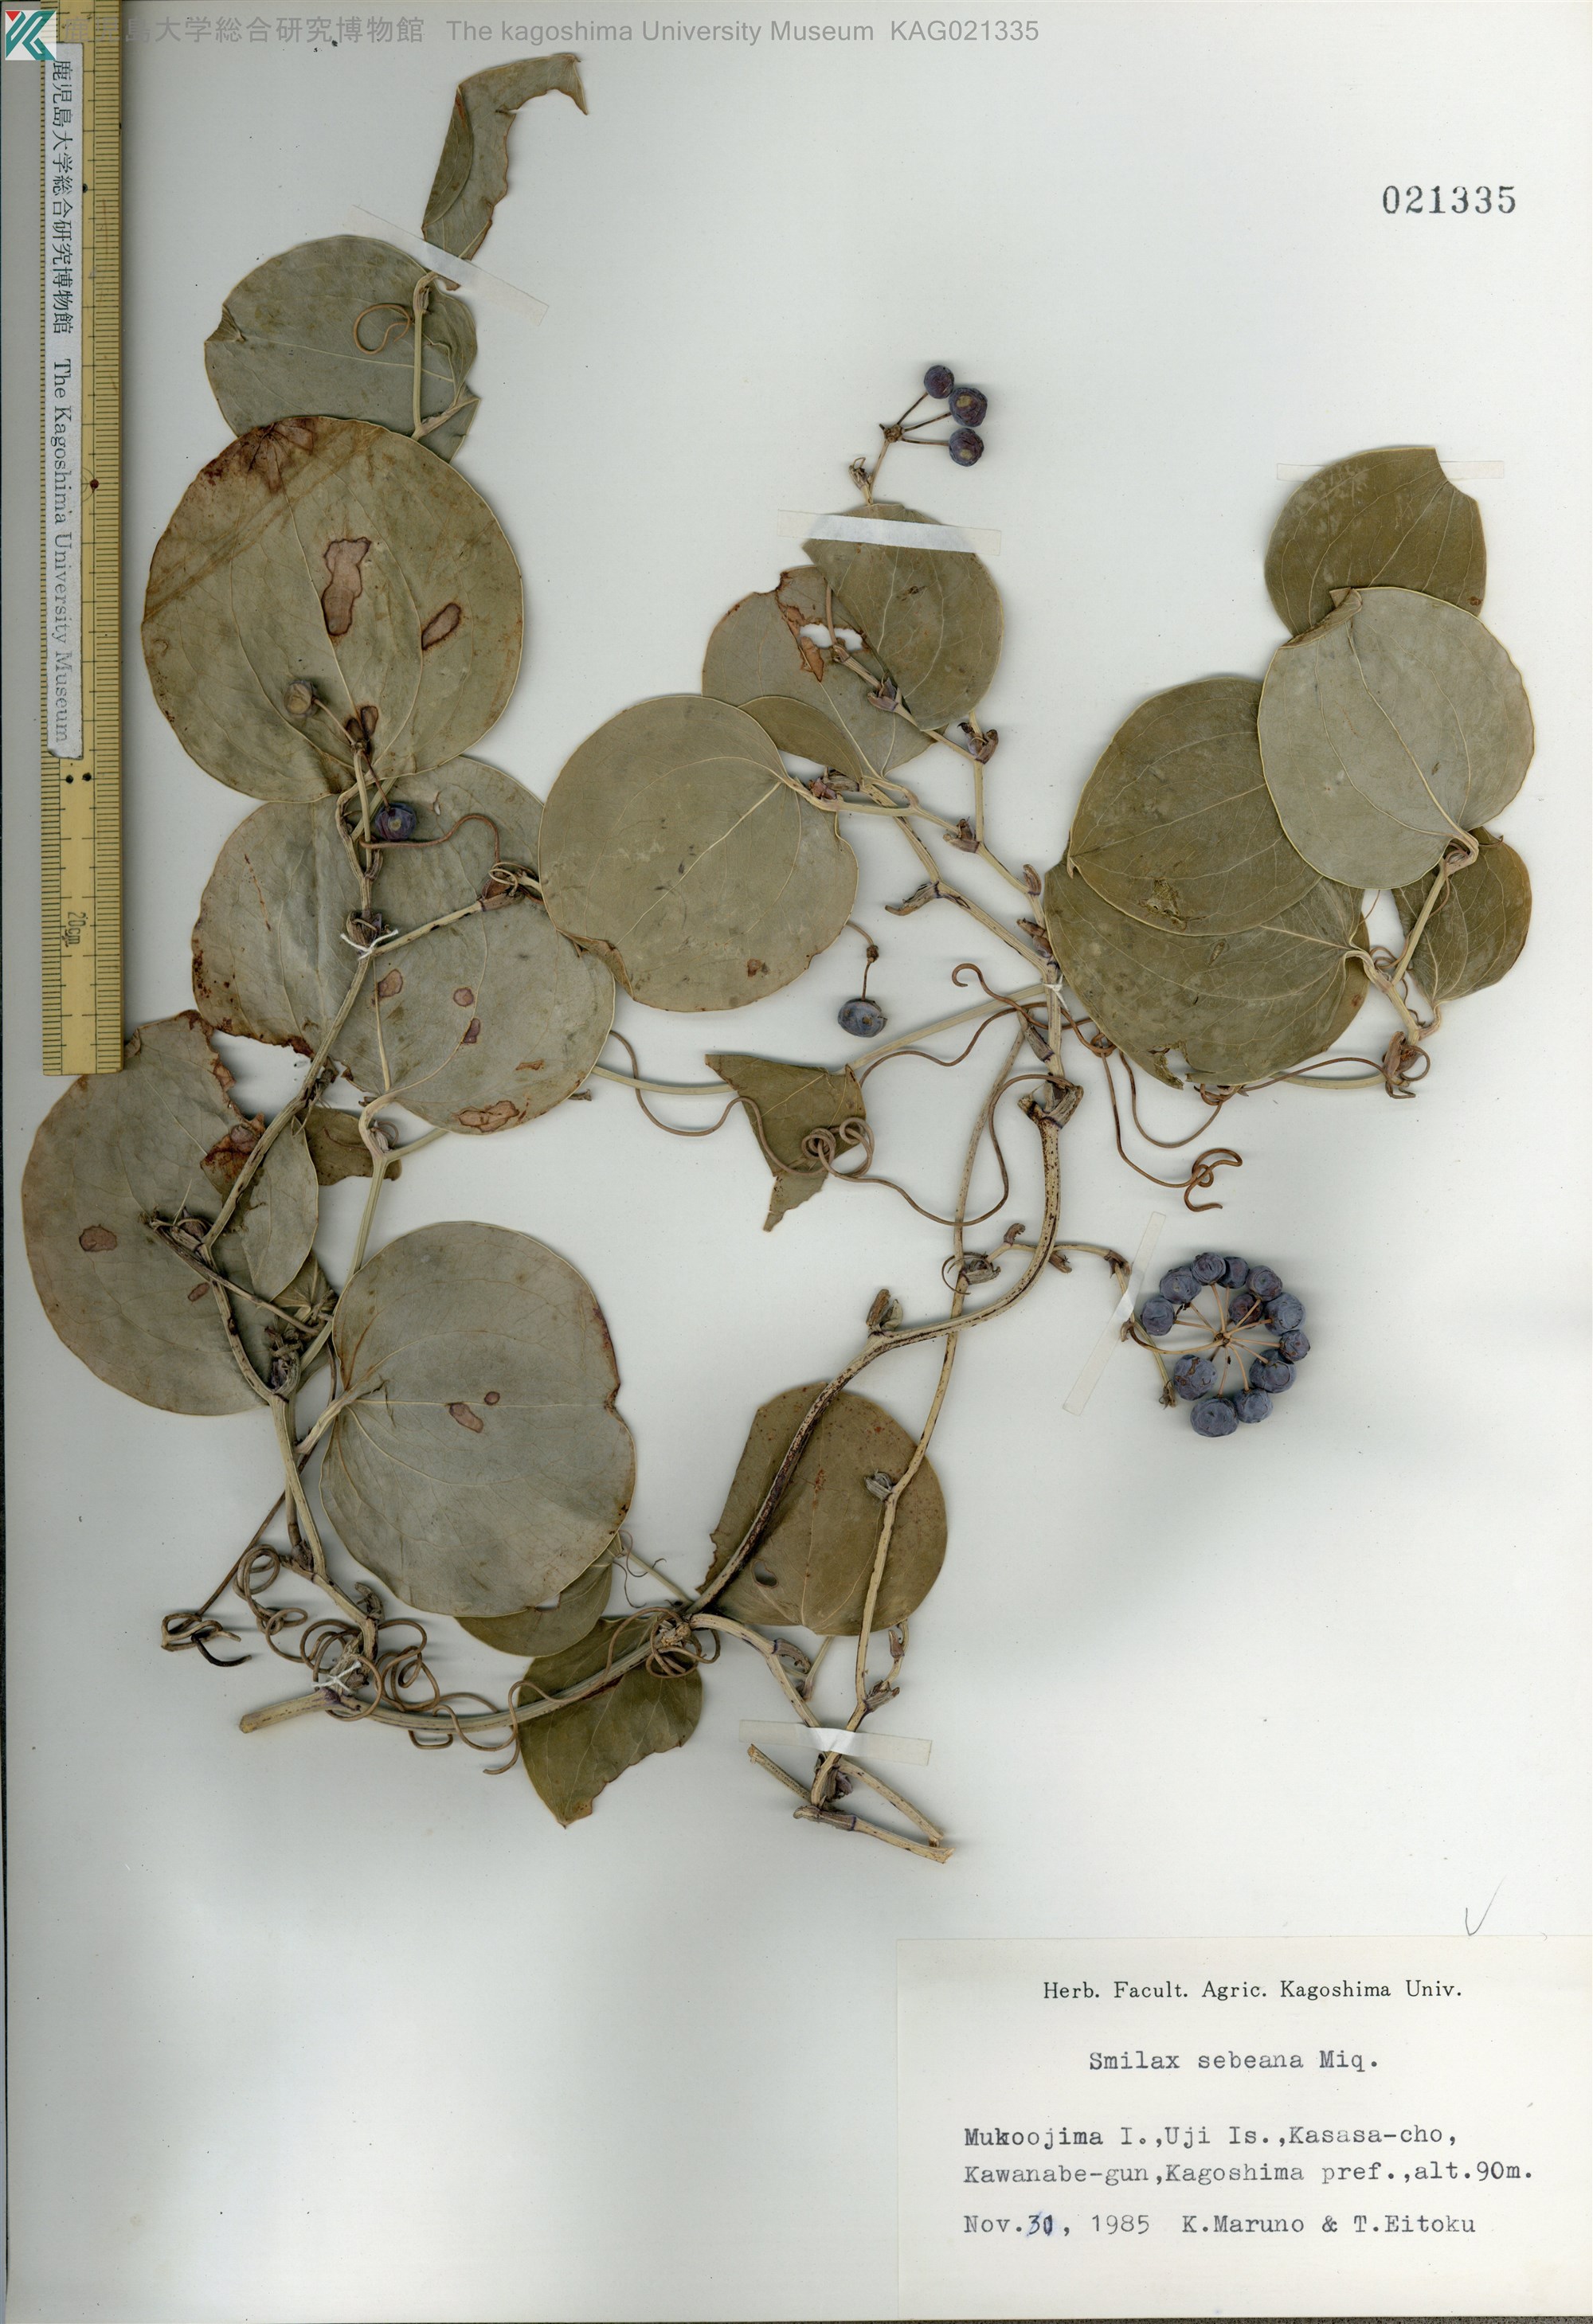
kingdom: Plantae
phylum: Tracheophyta
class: Liliopsida
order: Liliales
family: Smilacaceae
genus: Smilax
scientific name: Smilax sebeana
